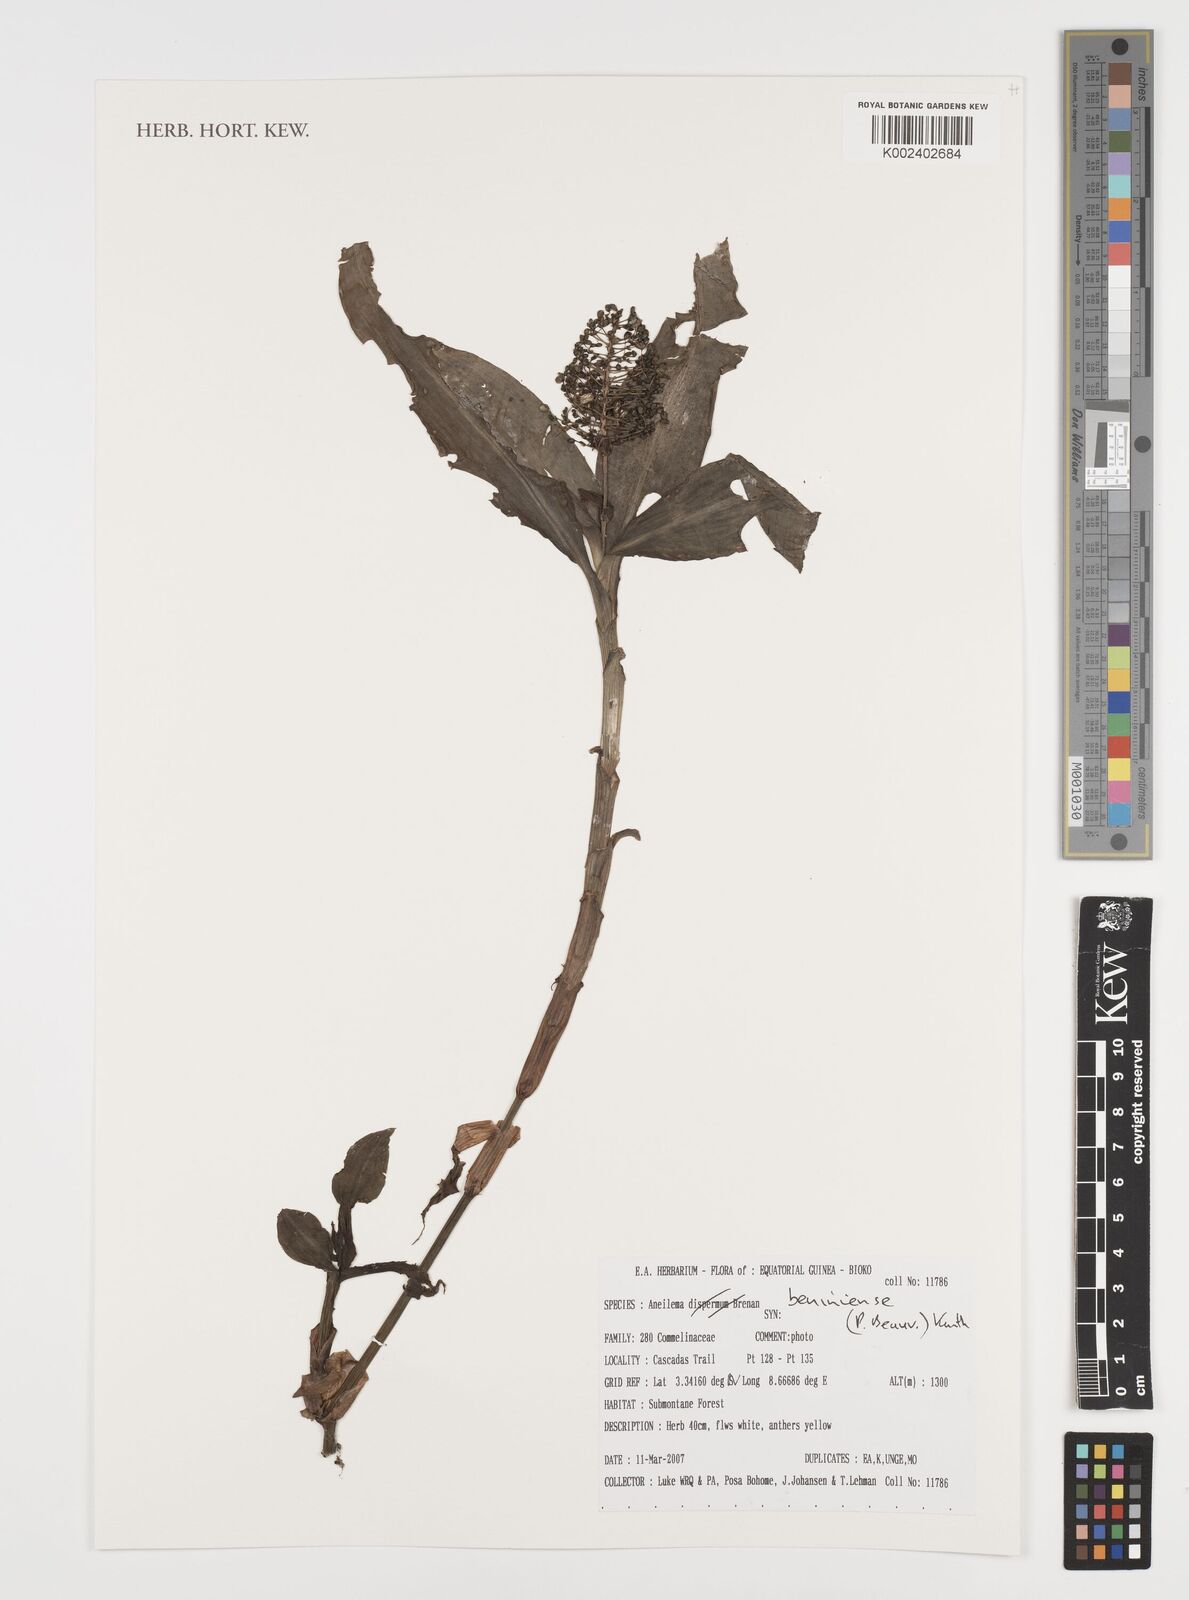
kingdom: Plantae
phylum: Tracheophyta
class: Liliopsida
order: Commelinales
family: Commelinaceae
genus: Aneilema
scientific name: Aneilema beniniense
